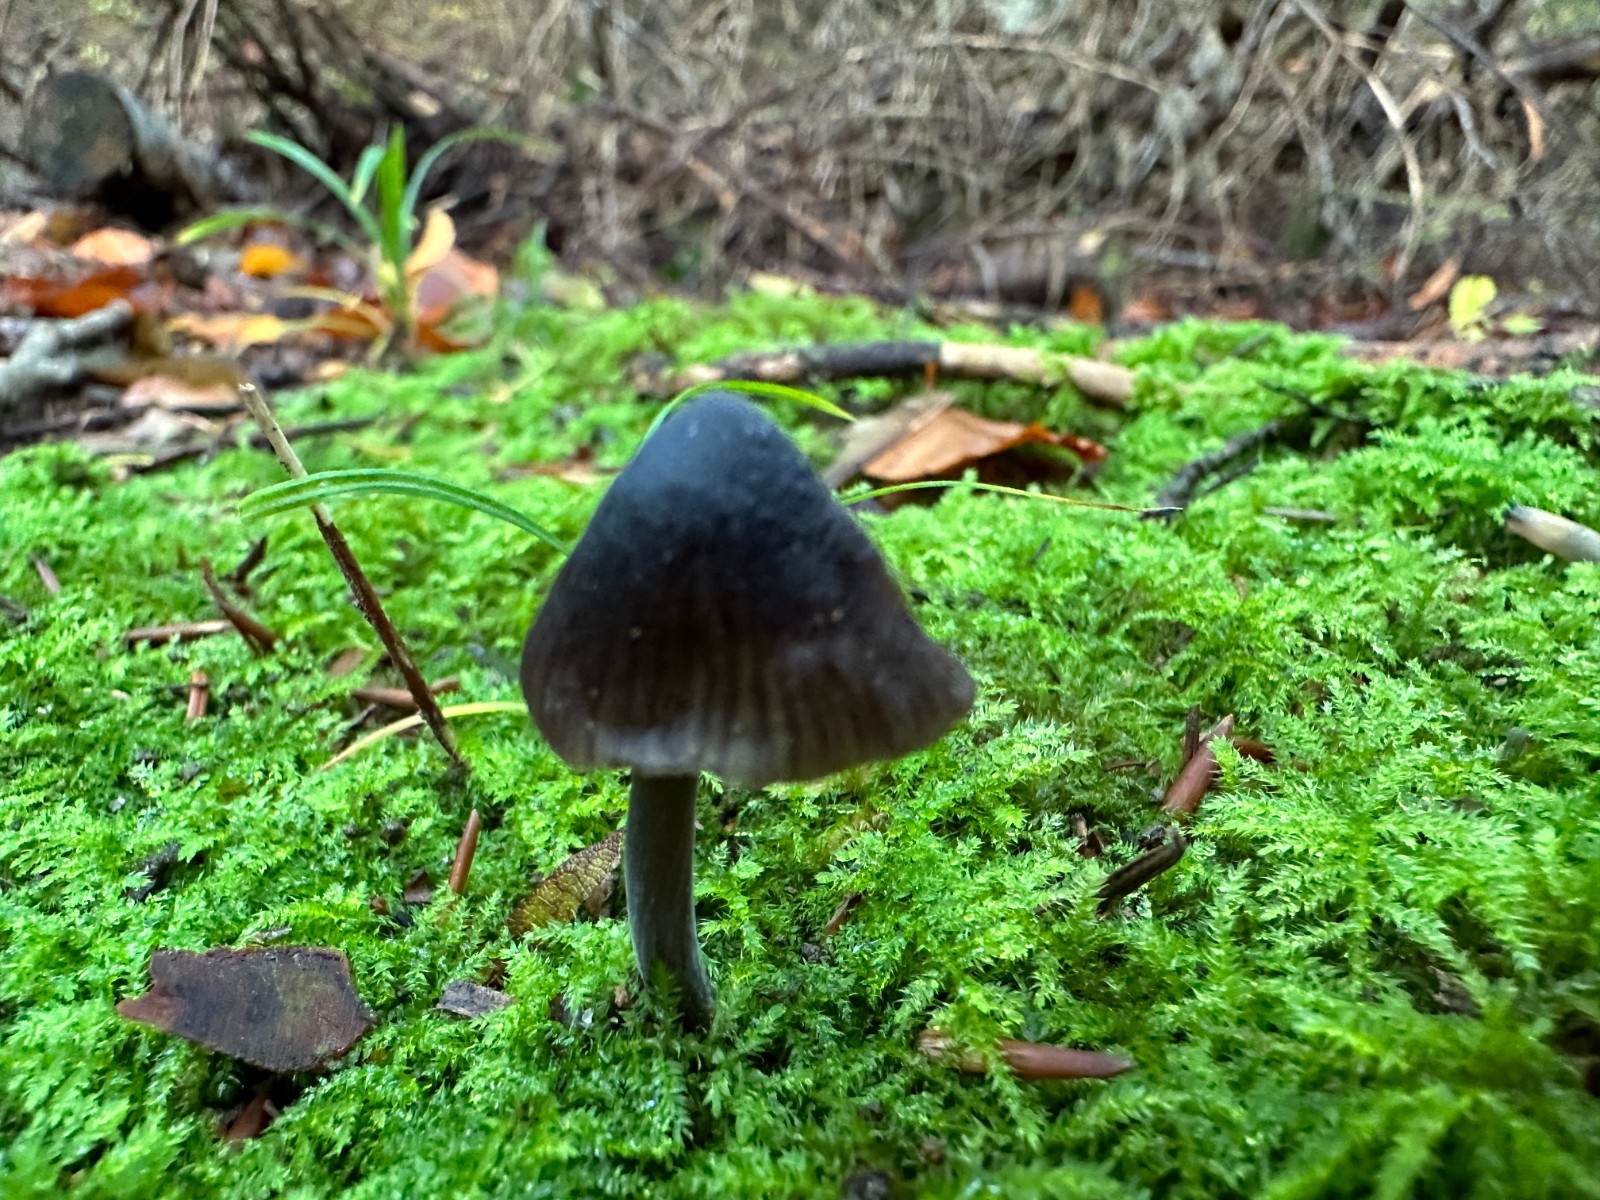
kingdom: Fungi
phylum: Basidiomycota
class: Agaricomycetes
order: Agaricales
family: Mycenaceae
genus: Mycena
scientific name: Mycena galopus
